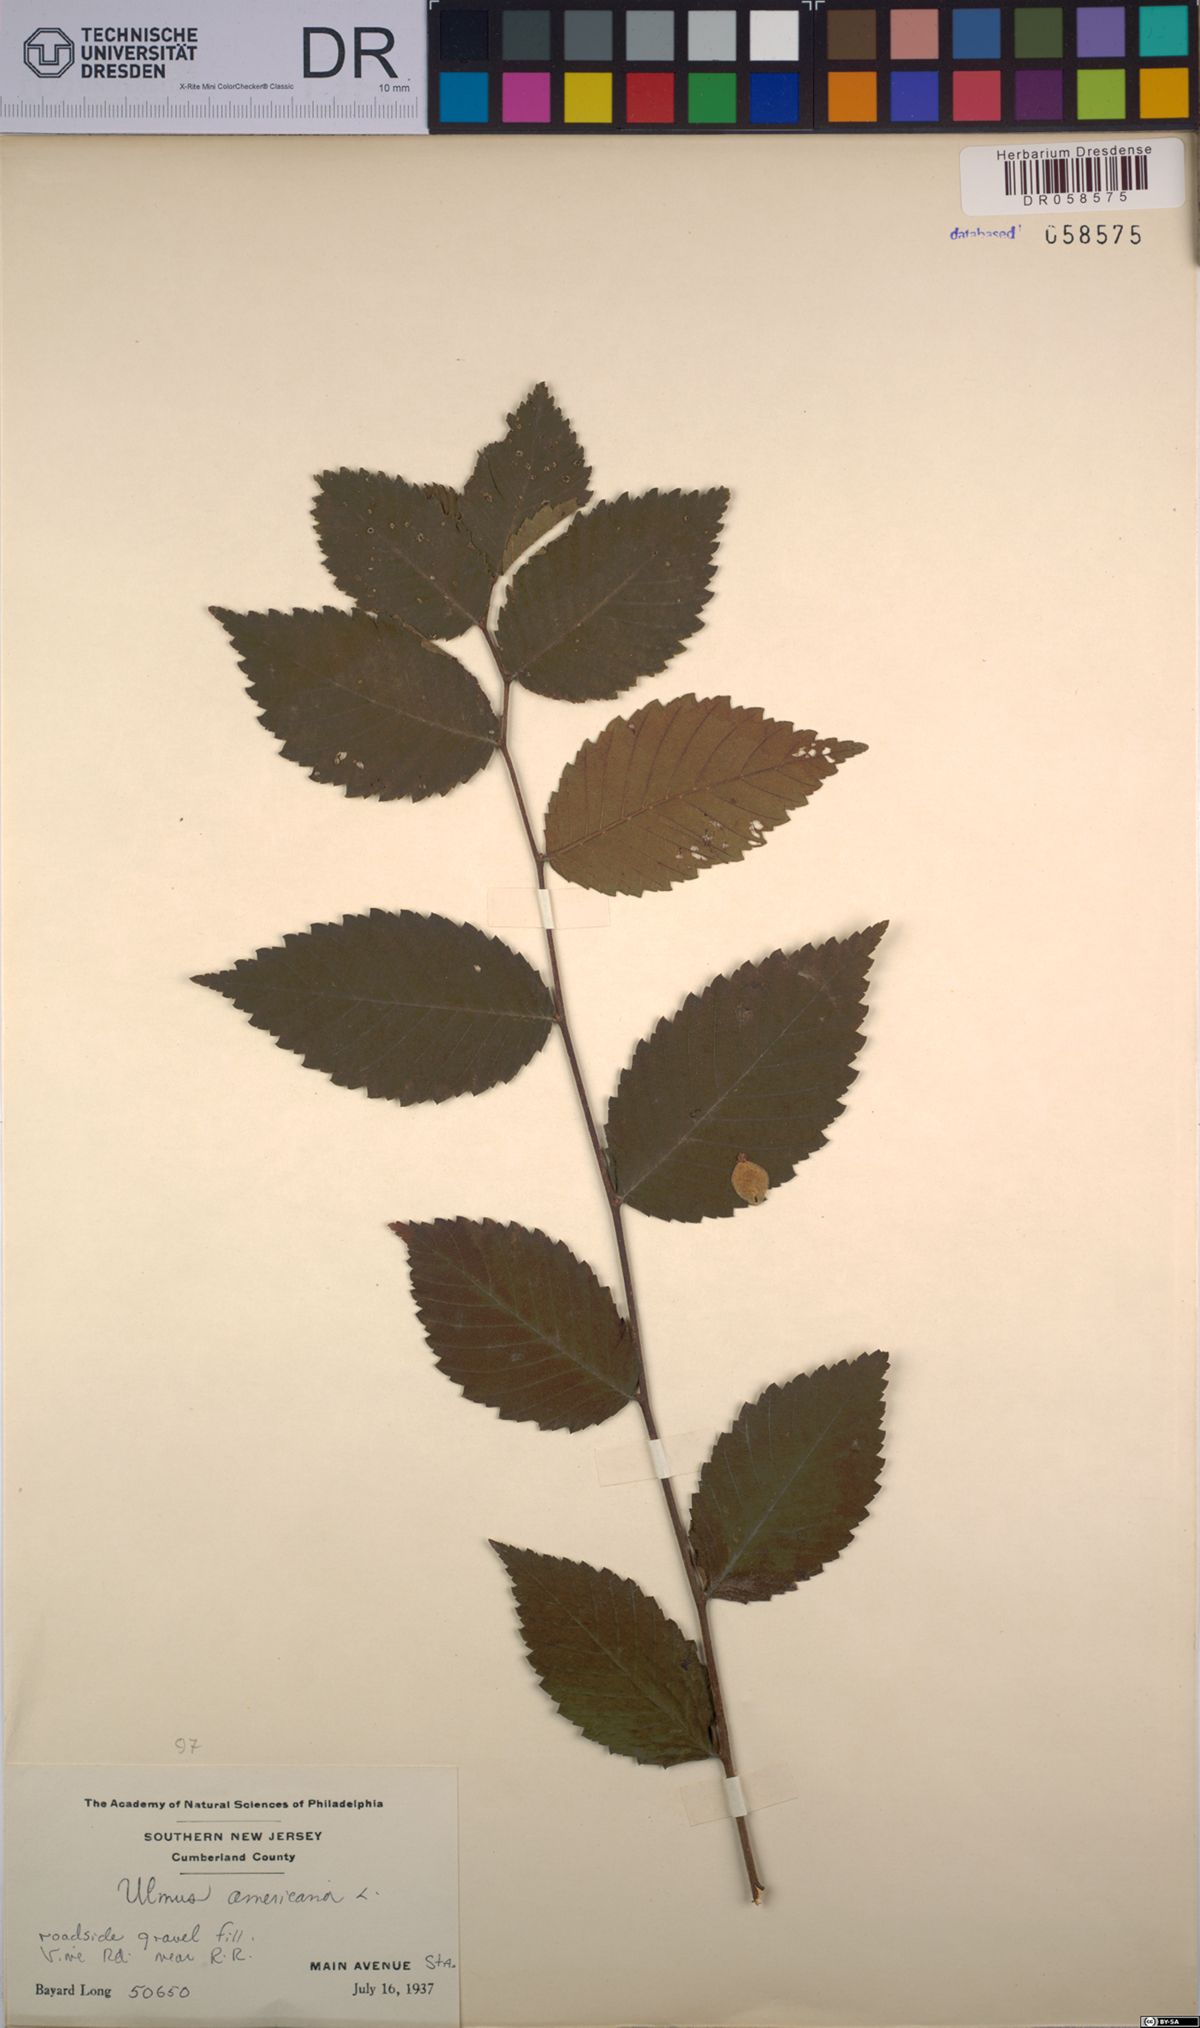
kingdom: Plantae
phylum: Tracheophyta
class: Magnoliopsida
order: Rosales
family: Ulmaceae
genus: Ulmus
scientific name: Ulmus americana
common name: American elm
